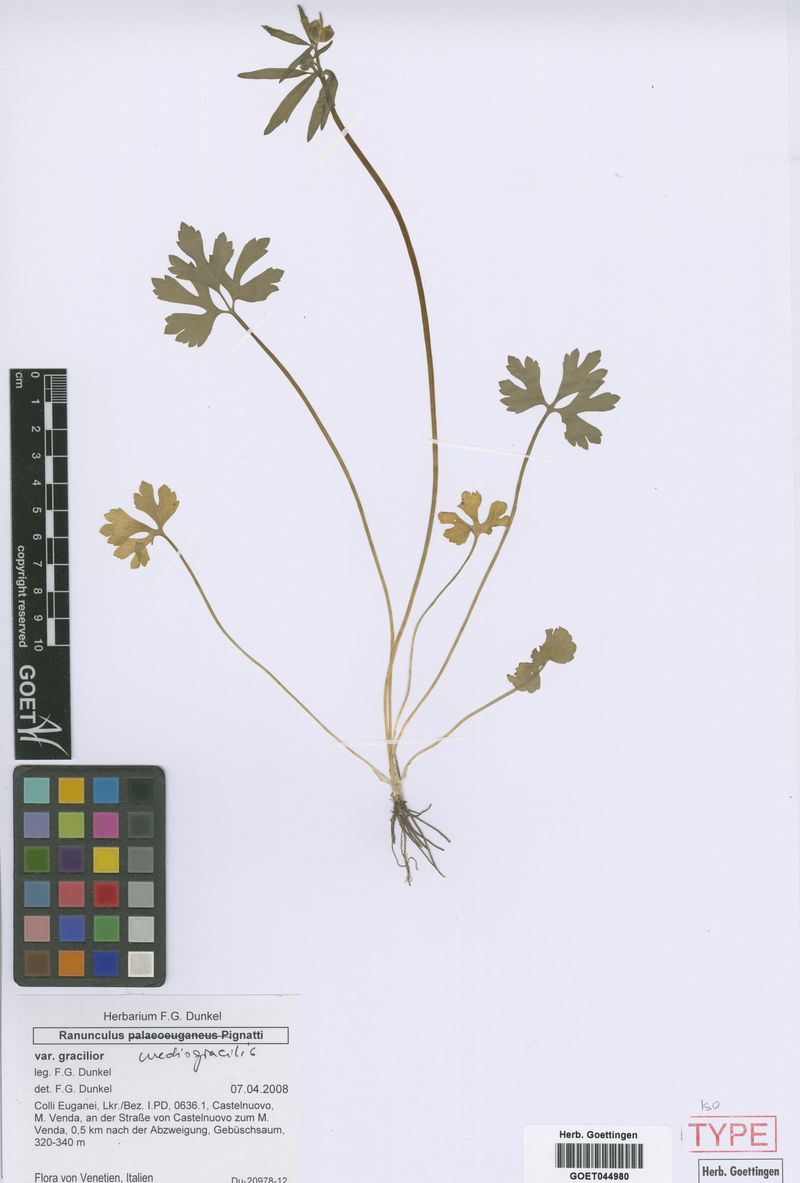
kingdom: Plantae
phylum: Tracheophyta
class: Magnoliopsida
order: Ranunculales
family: Ranunculaceae
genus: Ranunculus
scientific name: Ranunculus mediogracilis
